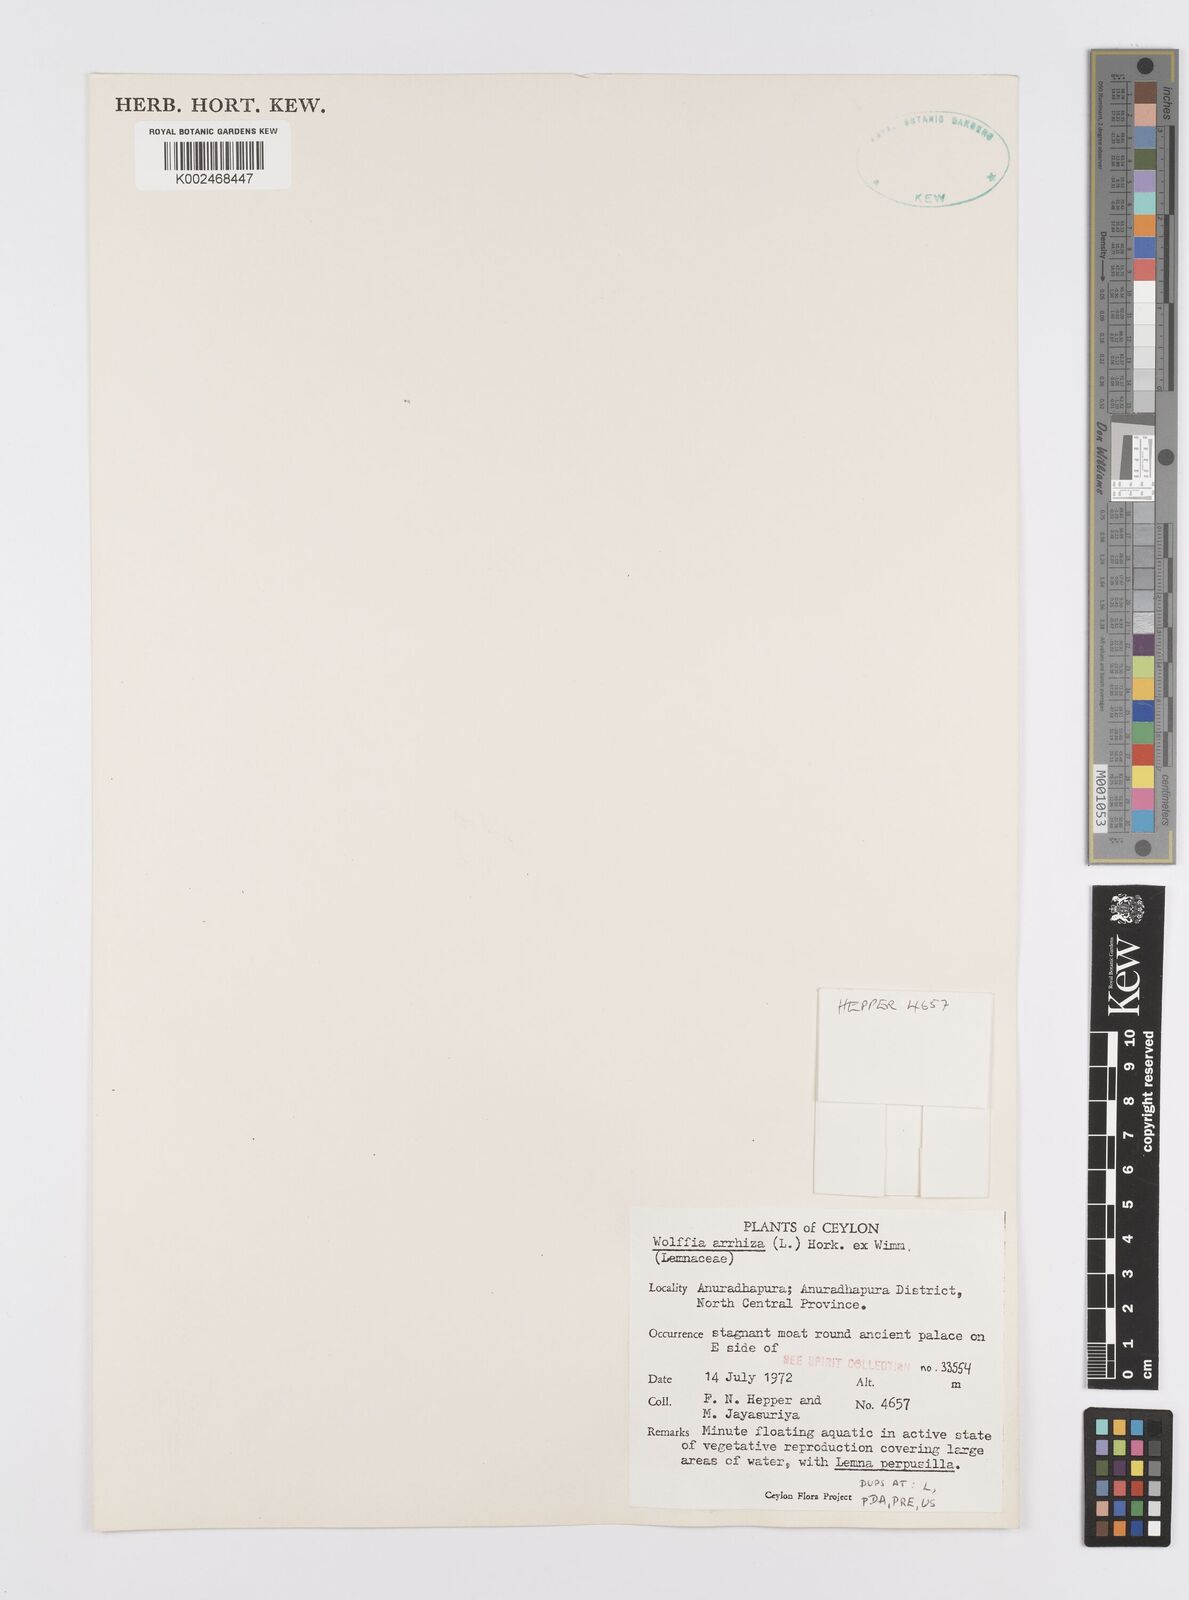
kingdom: Plantae
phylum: Tracheophyta
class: Liliopsida
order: Alismatales
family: Araceae
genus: Wolffia
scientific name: Wolffia arrhiza
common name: Rootless duckweed
